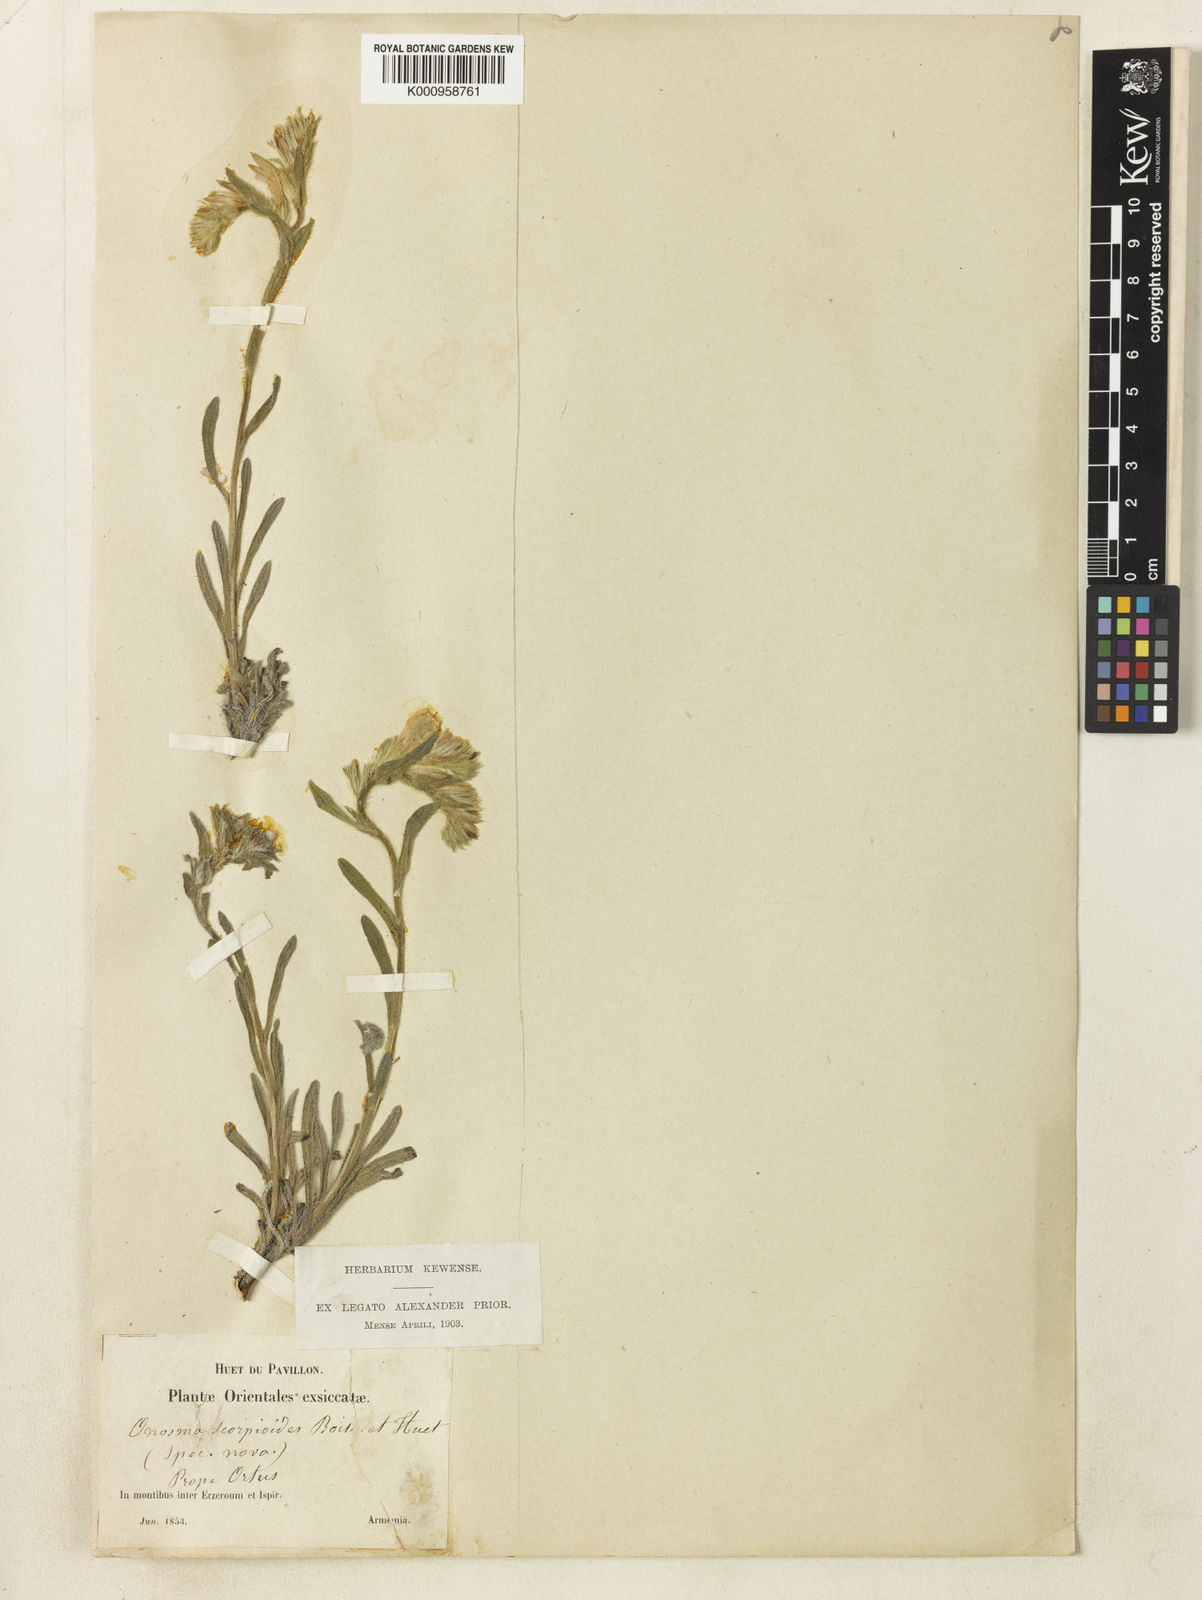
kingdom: Plantae
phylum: Tracheophyta
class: Magnoliopsida
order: Boraginales
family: Boraginaceae
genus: Onosma
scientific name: Onosma aucheriana
